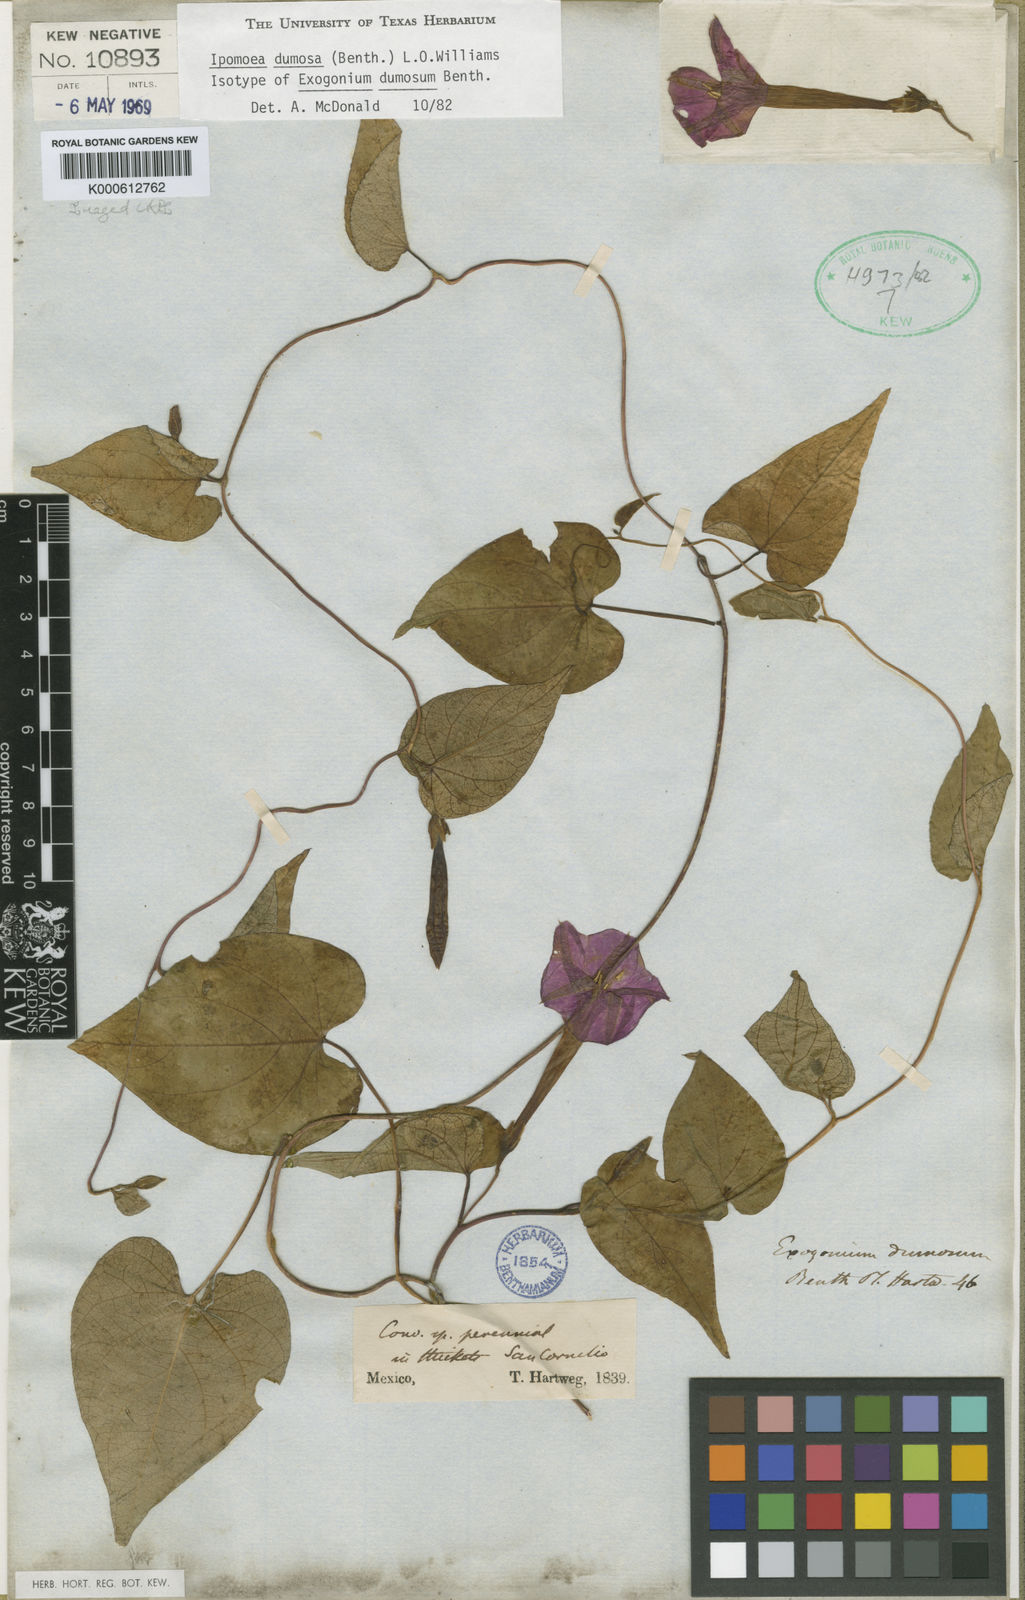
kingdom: Plantae
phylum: Tracheophyta
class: Magnoliopsida
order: Solanales
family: Convolvulaceae
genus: Ipomoea
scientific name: Ipomoea dumosa
